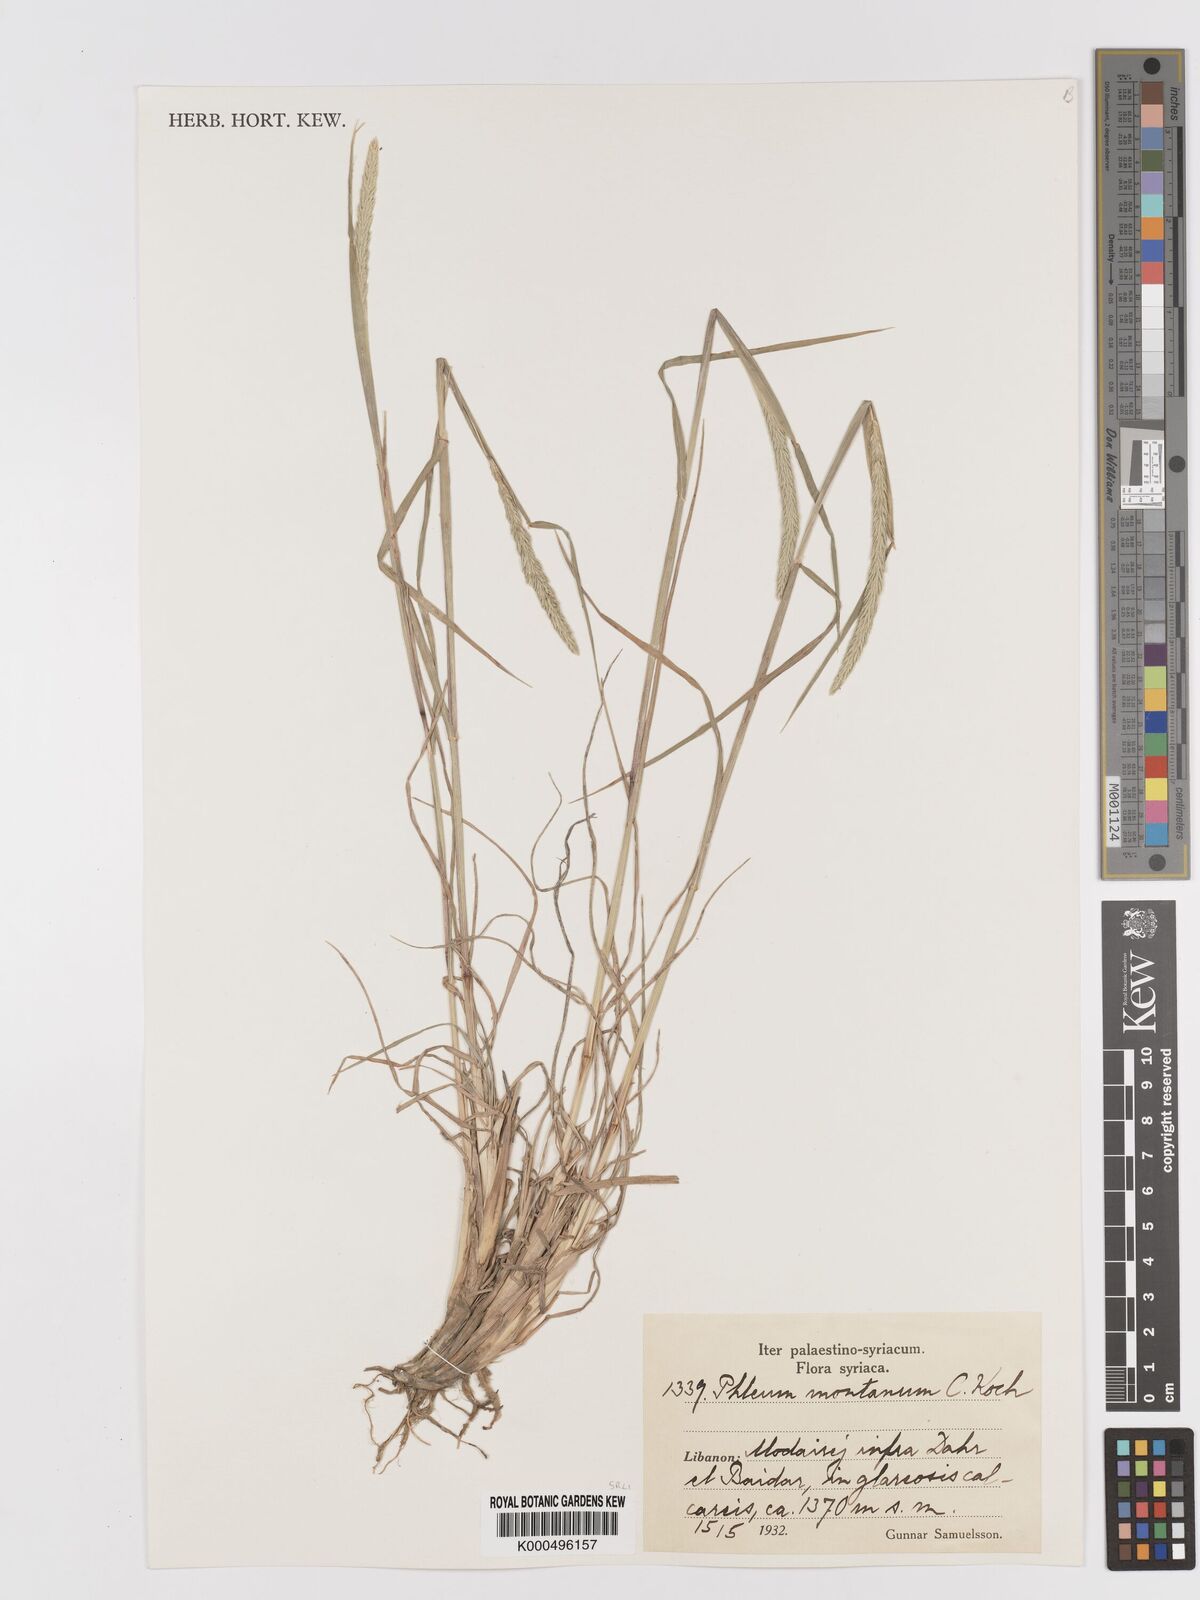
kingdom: Plantae
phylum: Tracheophyta
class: Liliopsida
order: Poales
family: Poaceae
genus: Phleum
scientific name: Phleum montanum
